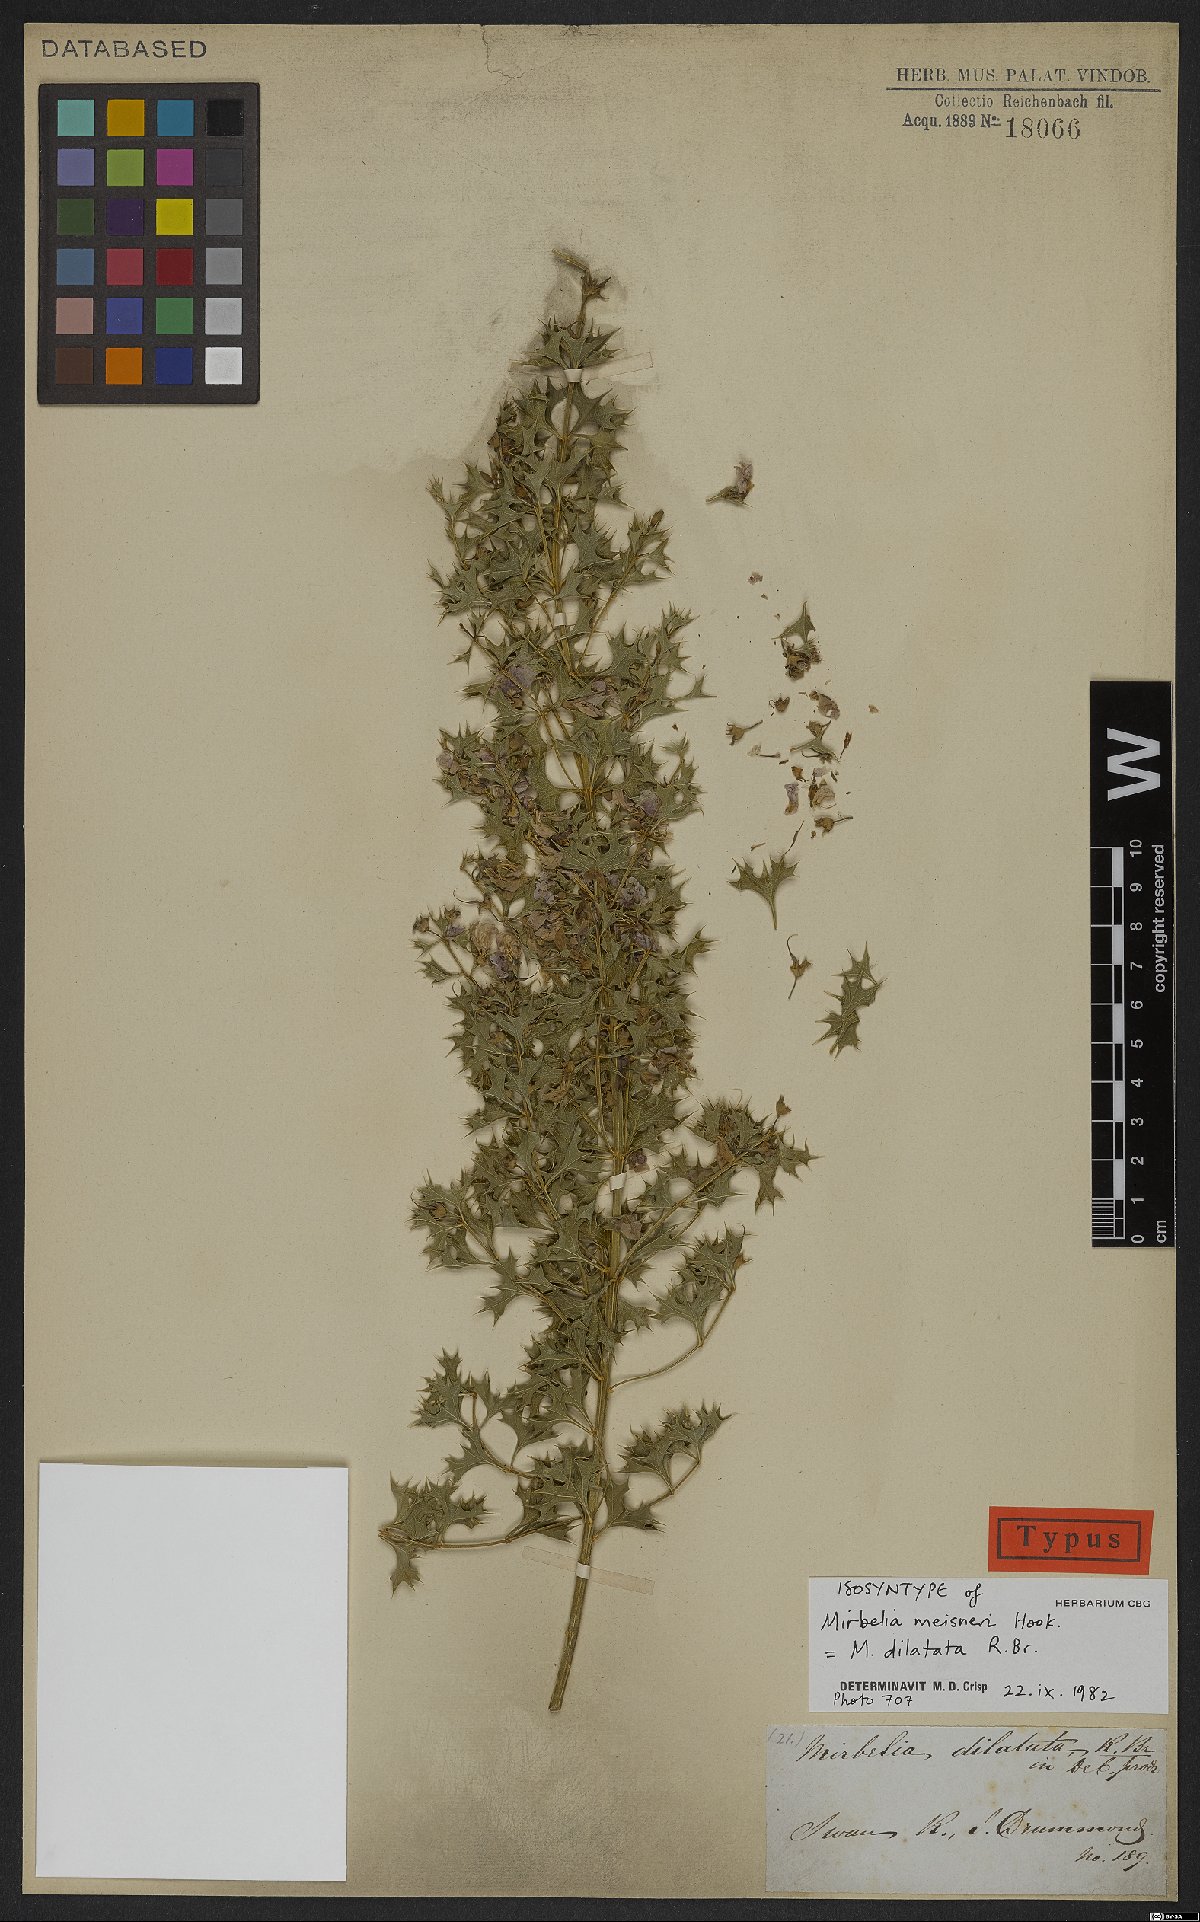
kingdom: Plantae
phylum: Tracheophyta
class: Magnoliopsida
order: Fabales
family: Fabaceae
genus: Mirbelia
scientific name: Mirbelia dilatata
